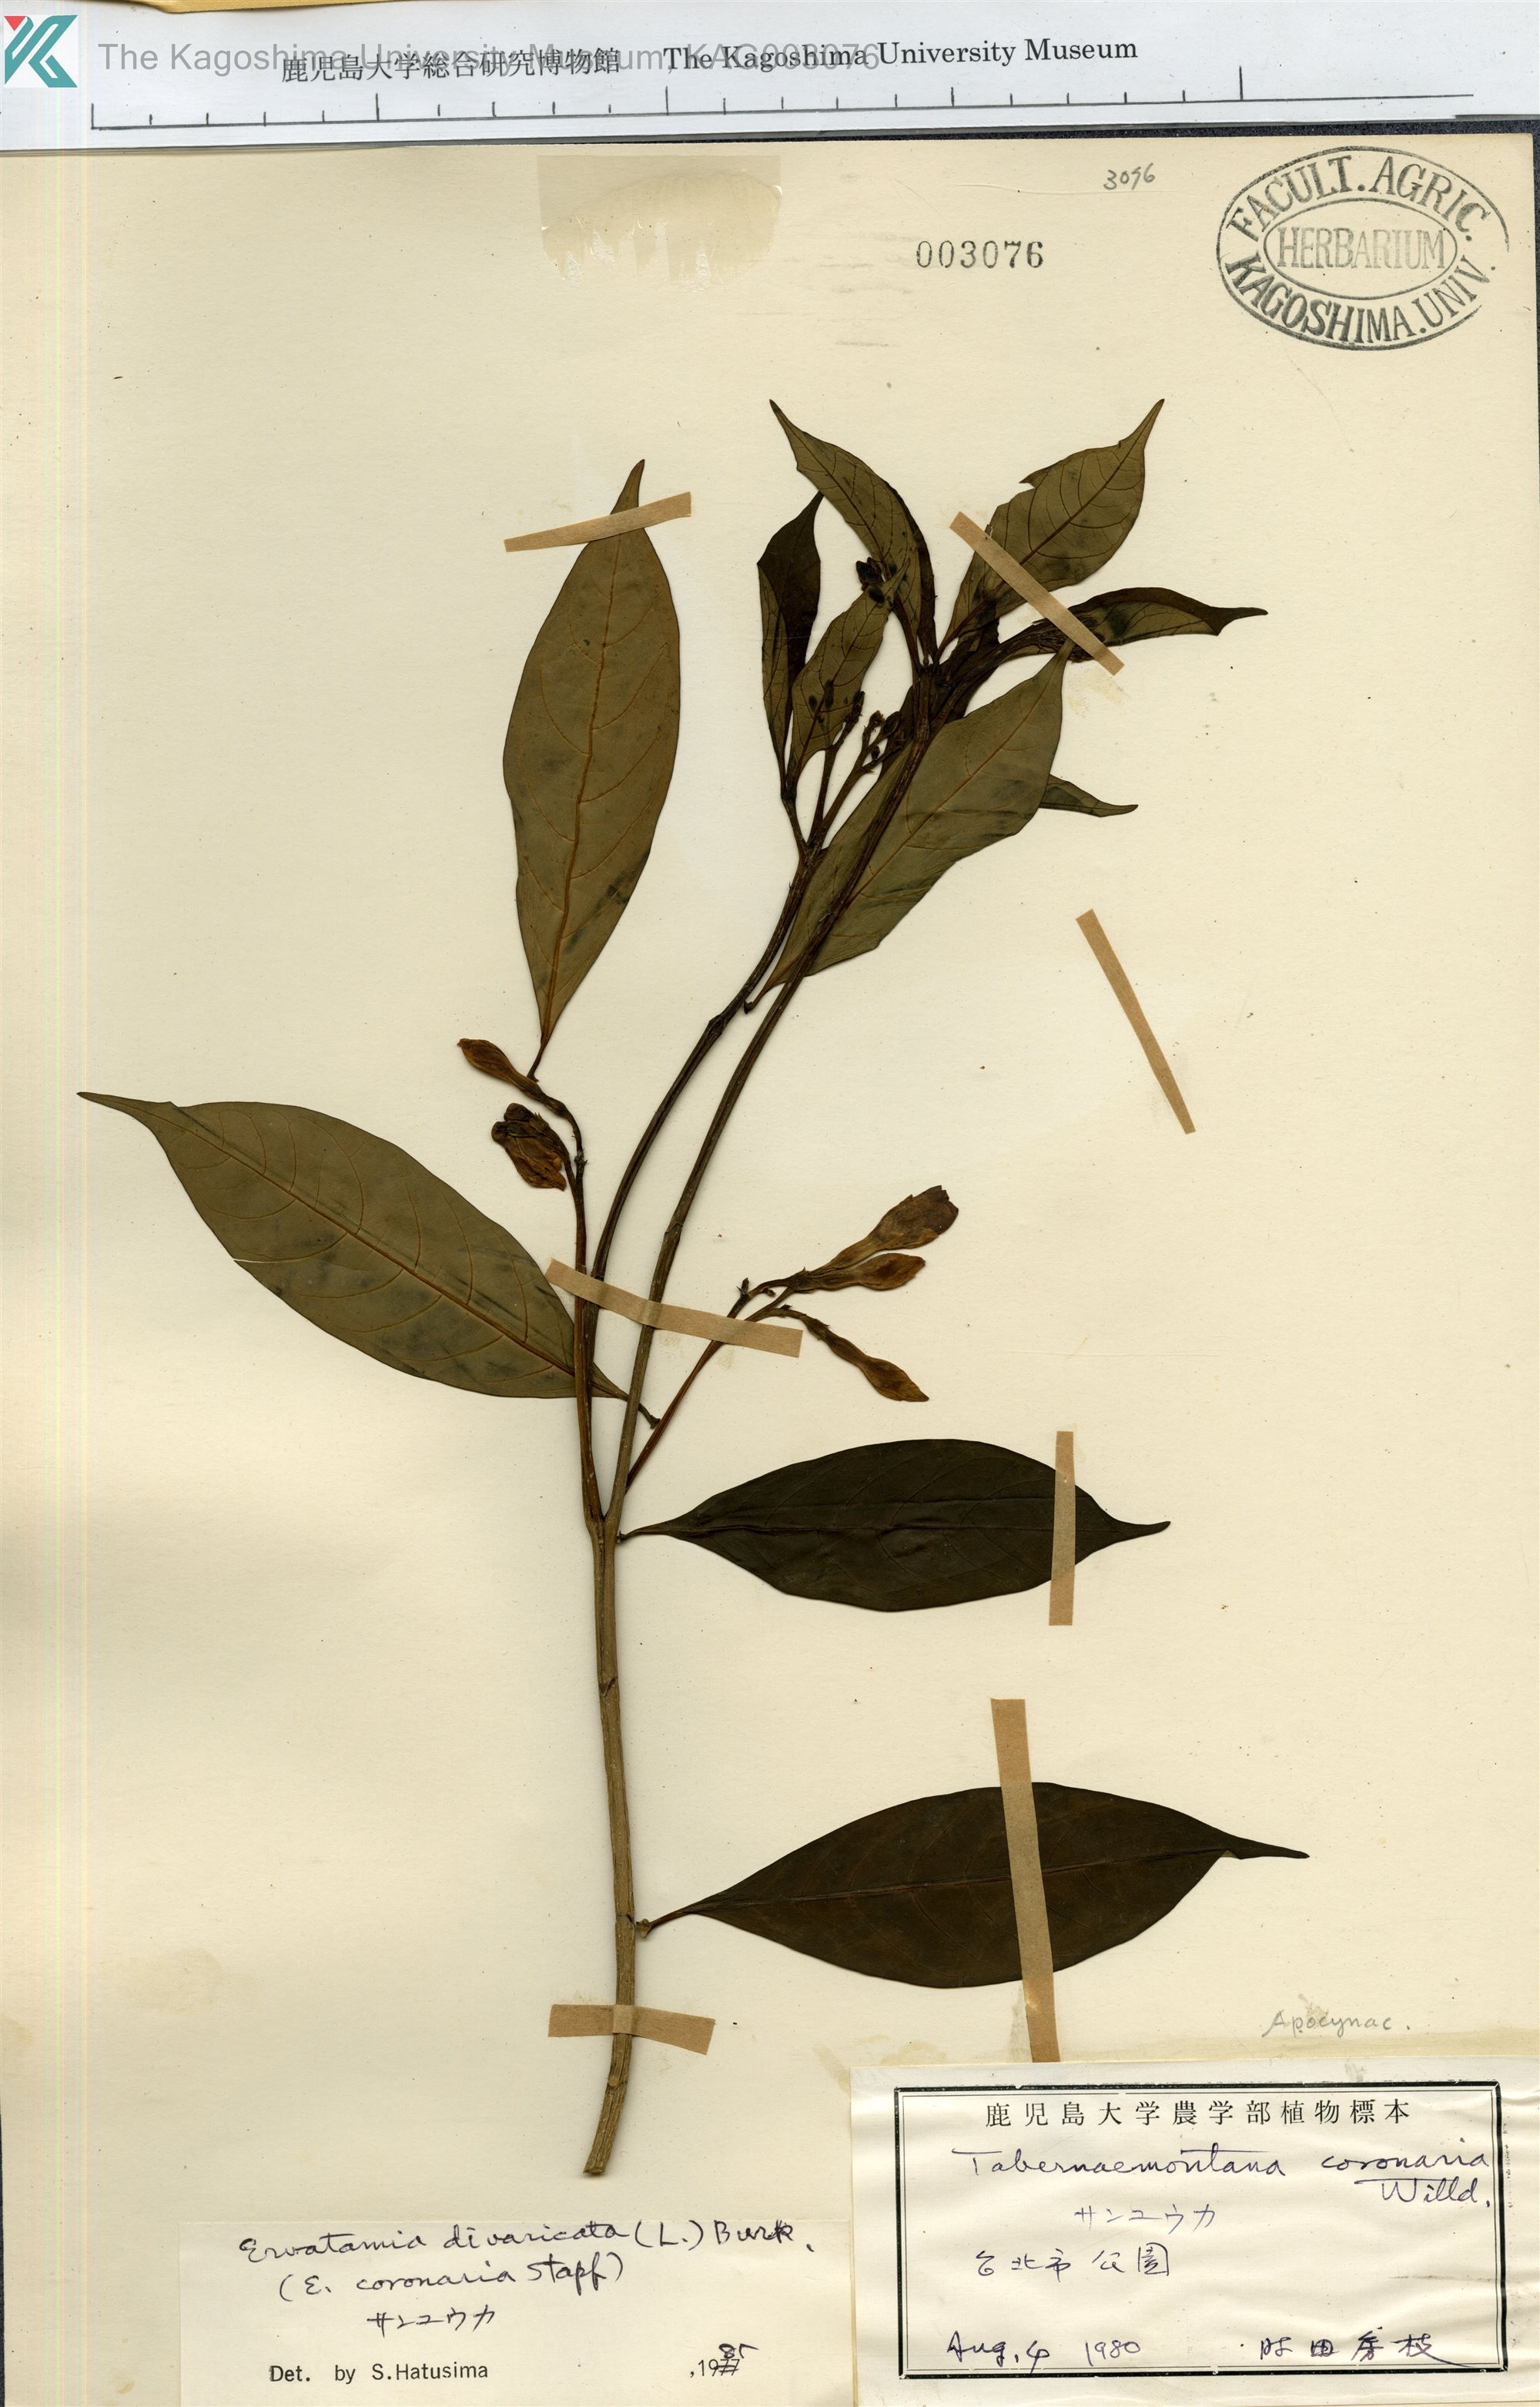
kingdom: Plantae
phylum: Tracheophyta
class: Magnoliopsida
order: Gentianales
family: Apocynaceae
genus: Tabernaemontana
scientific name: Tabernaemontana divaricata
